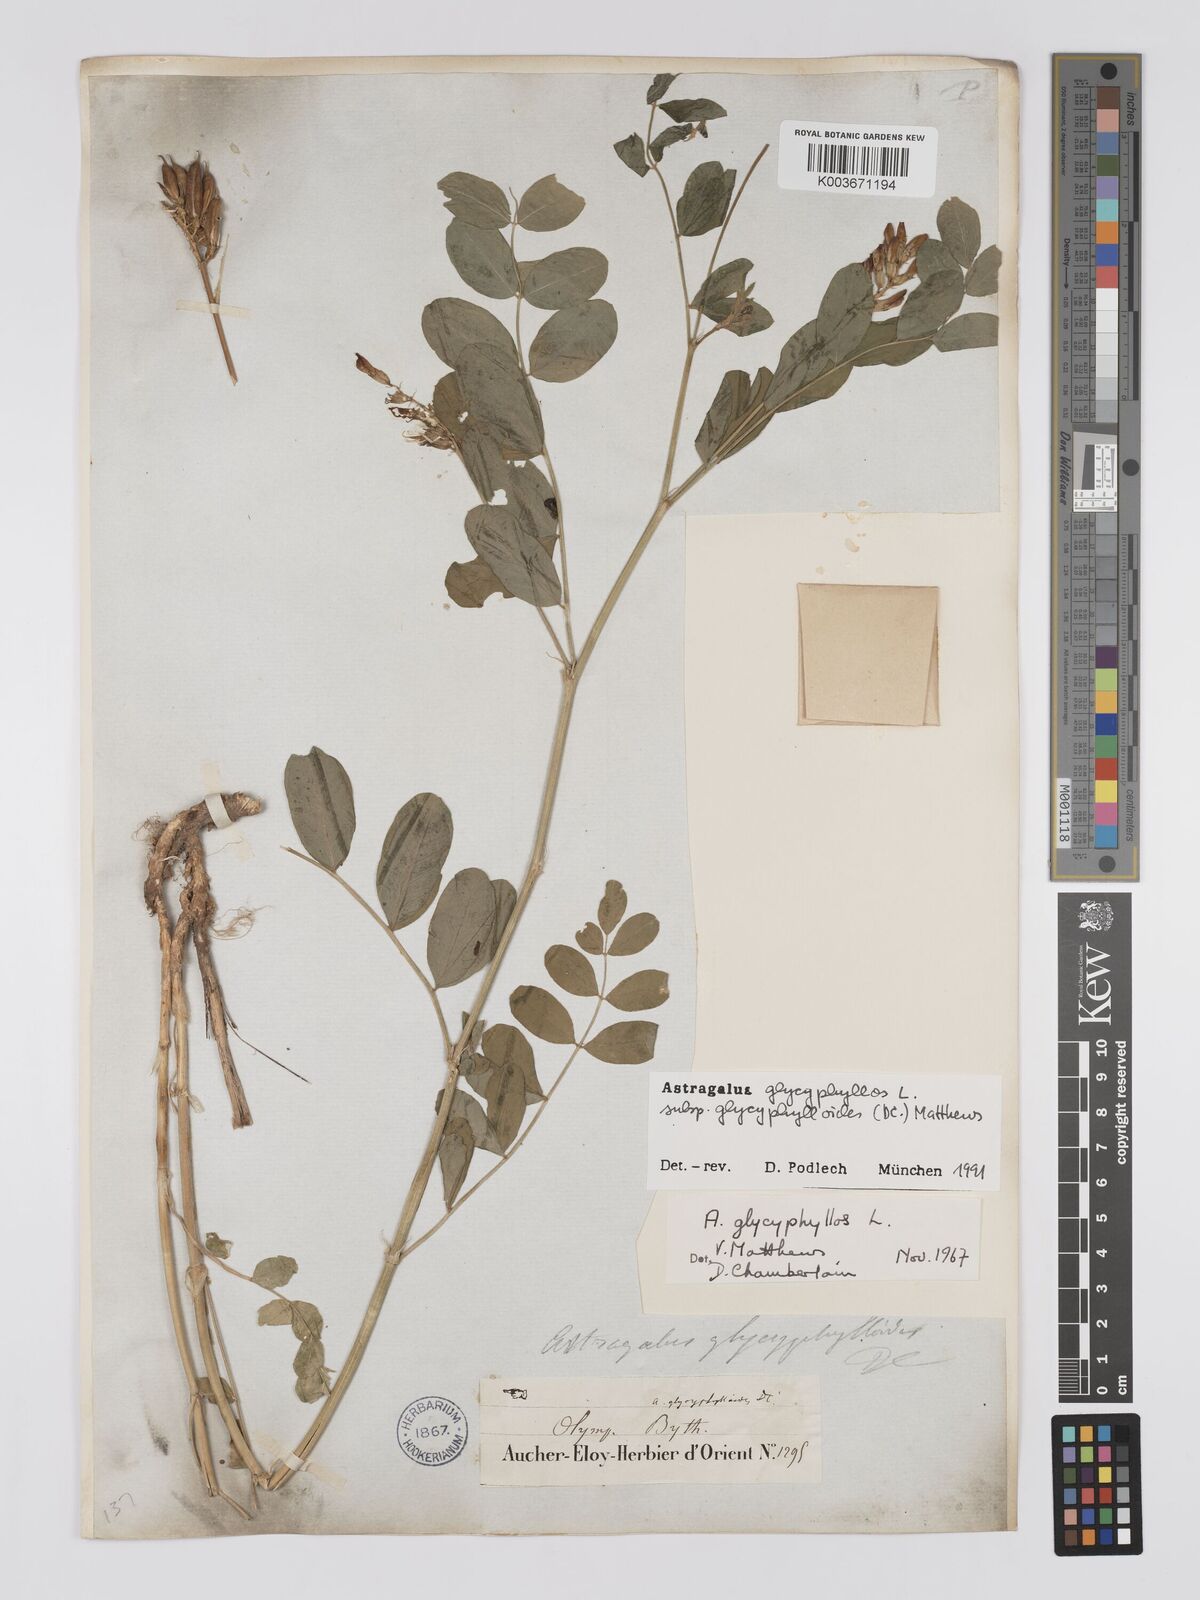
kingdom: Plantae
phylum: Tracheophyta
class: Magnoliopsida
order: Fabales
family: Fabaceae
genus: Astragalus
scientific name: Astragalus glycyphylloides
